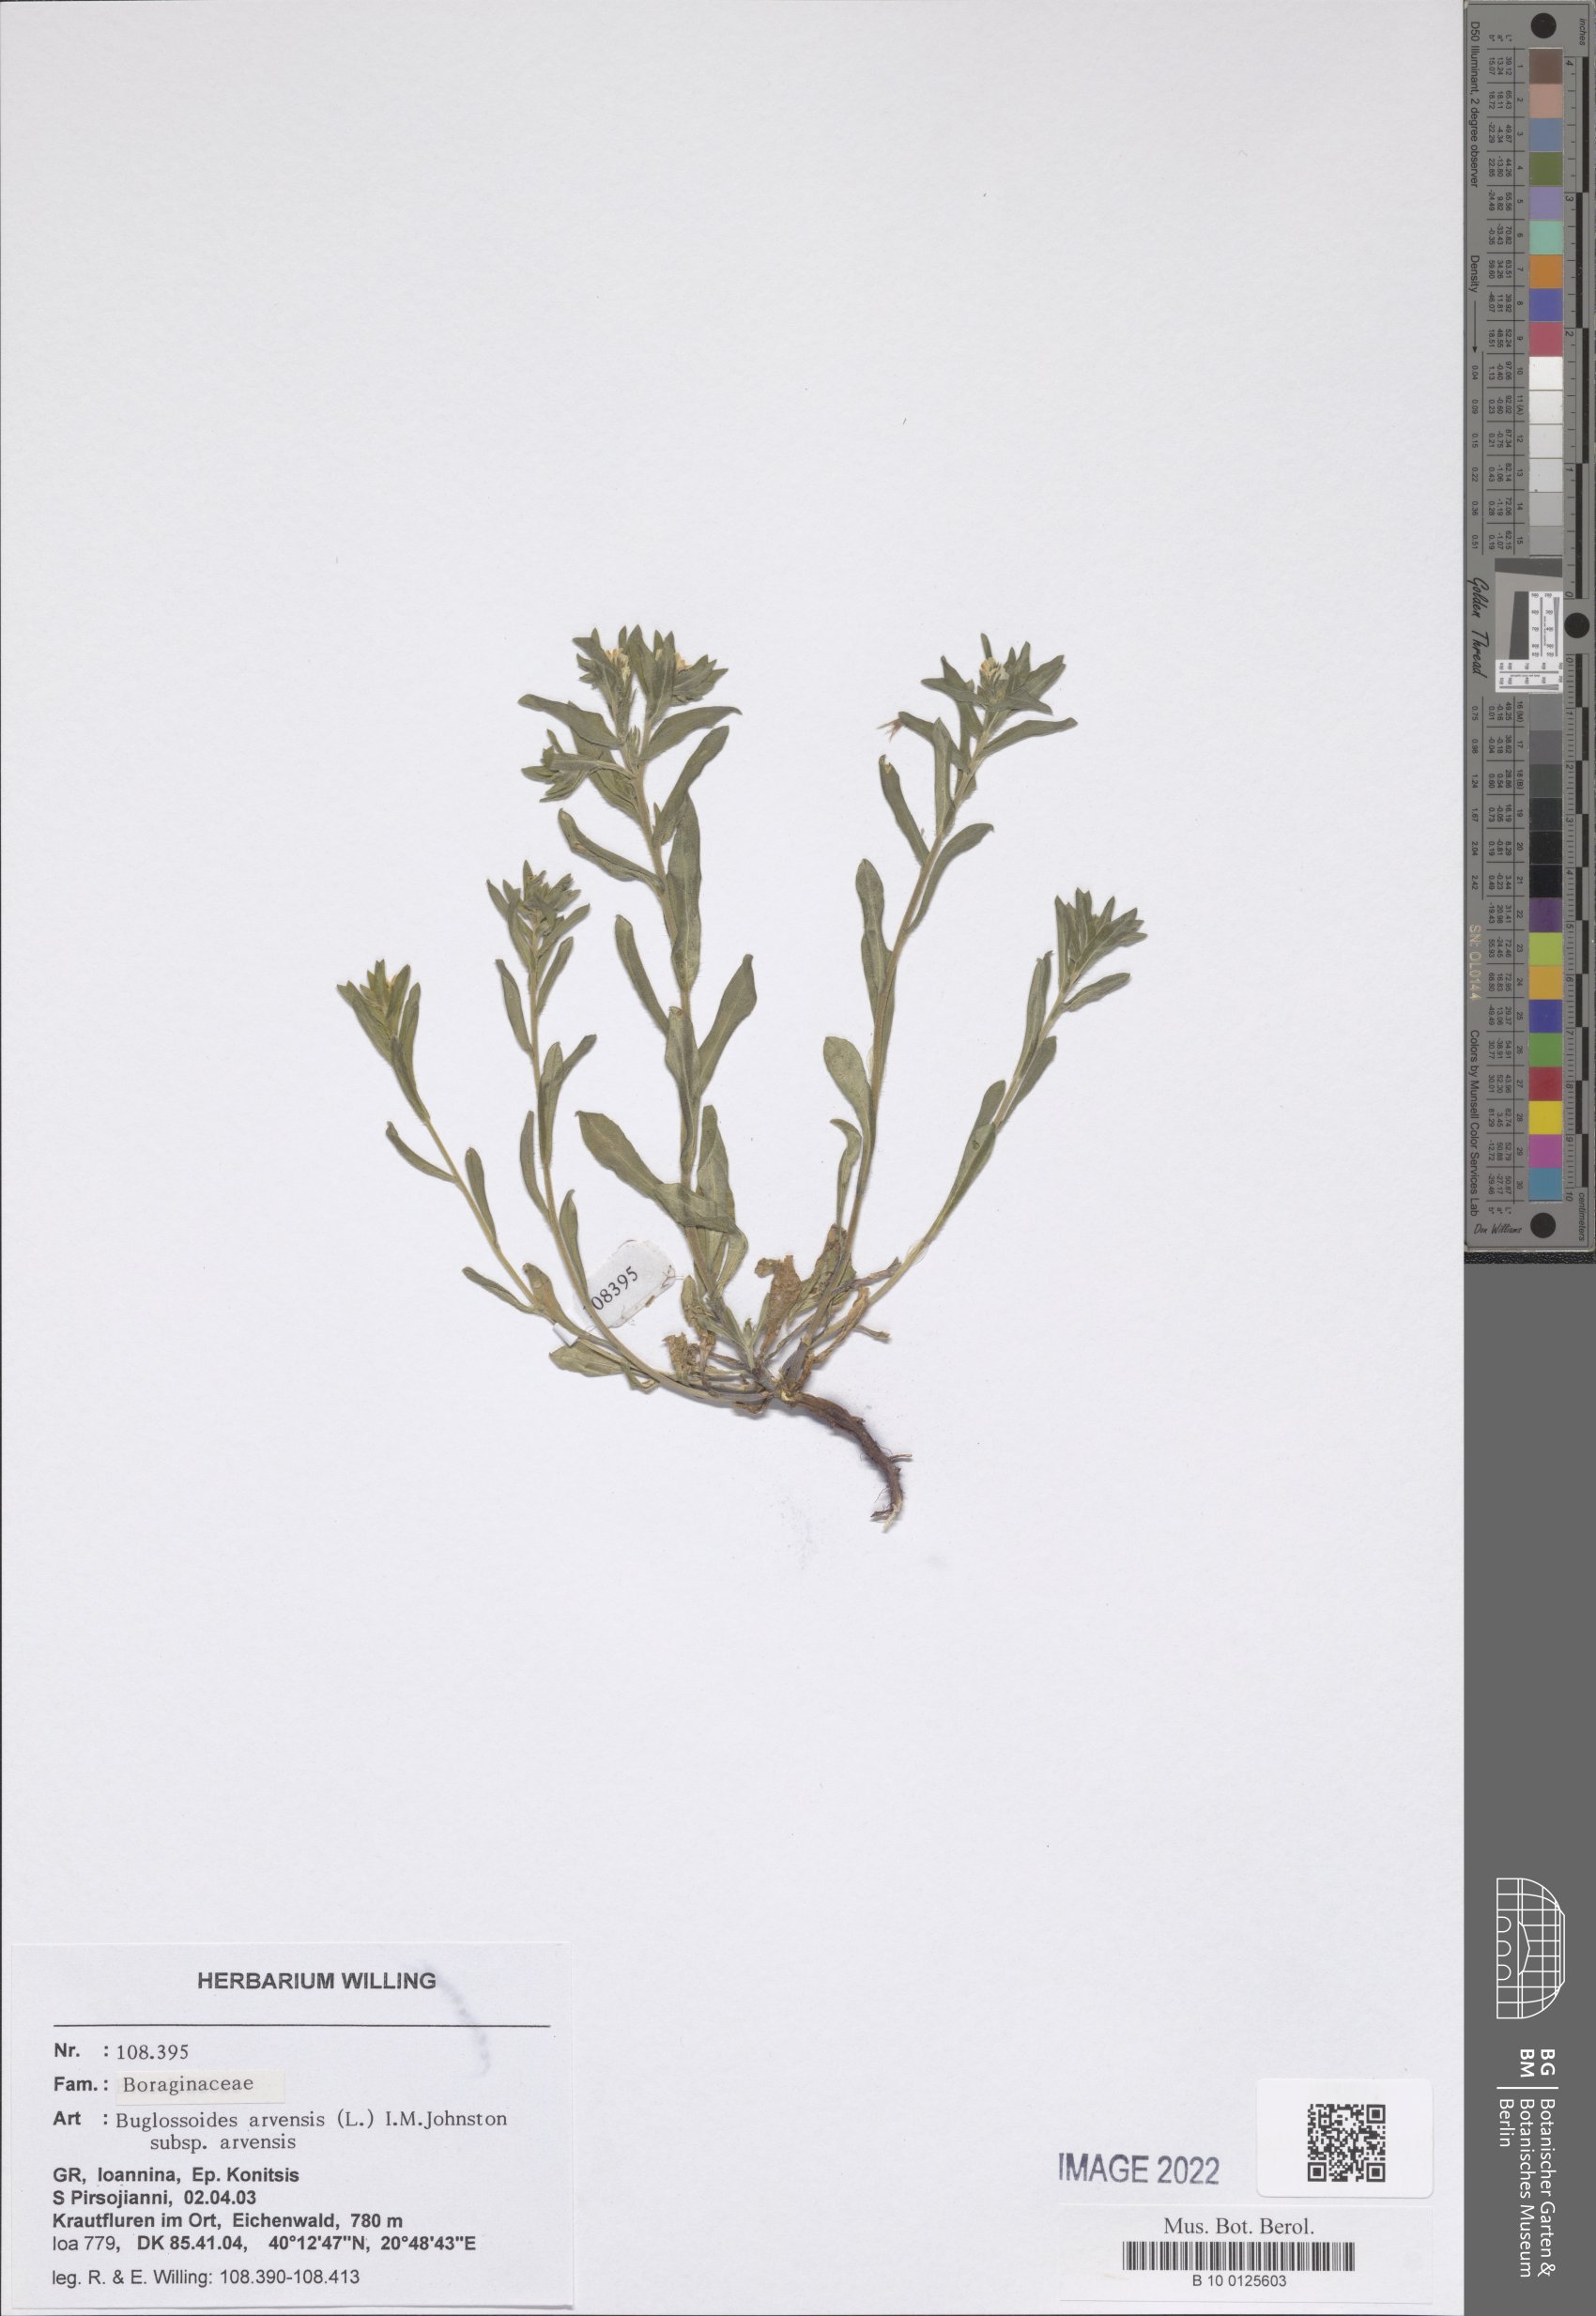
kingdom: Plantae
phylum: Tracheophyta
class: Magnoliopsida
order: Boraginales
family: Boraginaceae
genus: Buglossoides
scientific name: Buglossoides arvensis
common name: Corn gromwell
